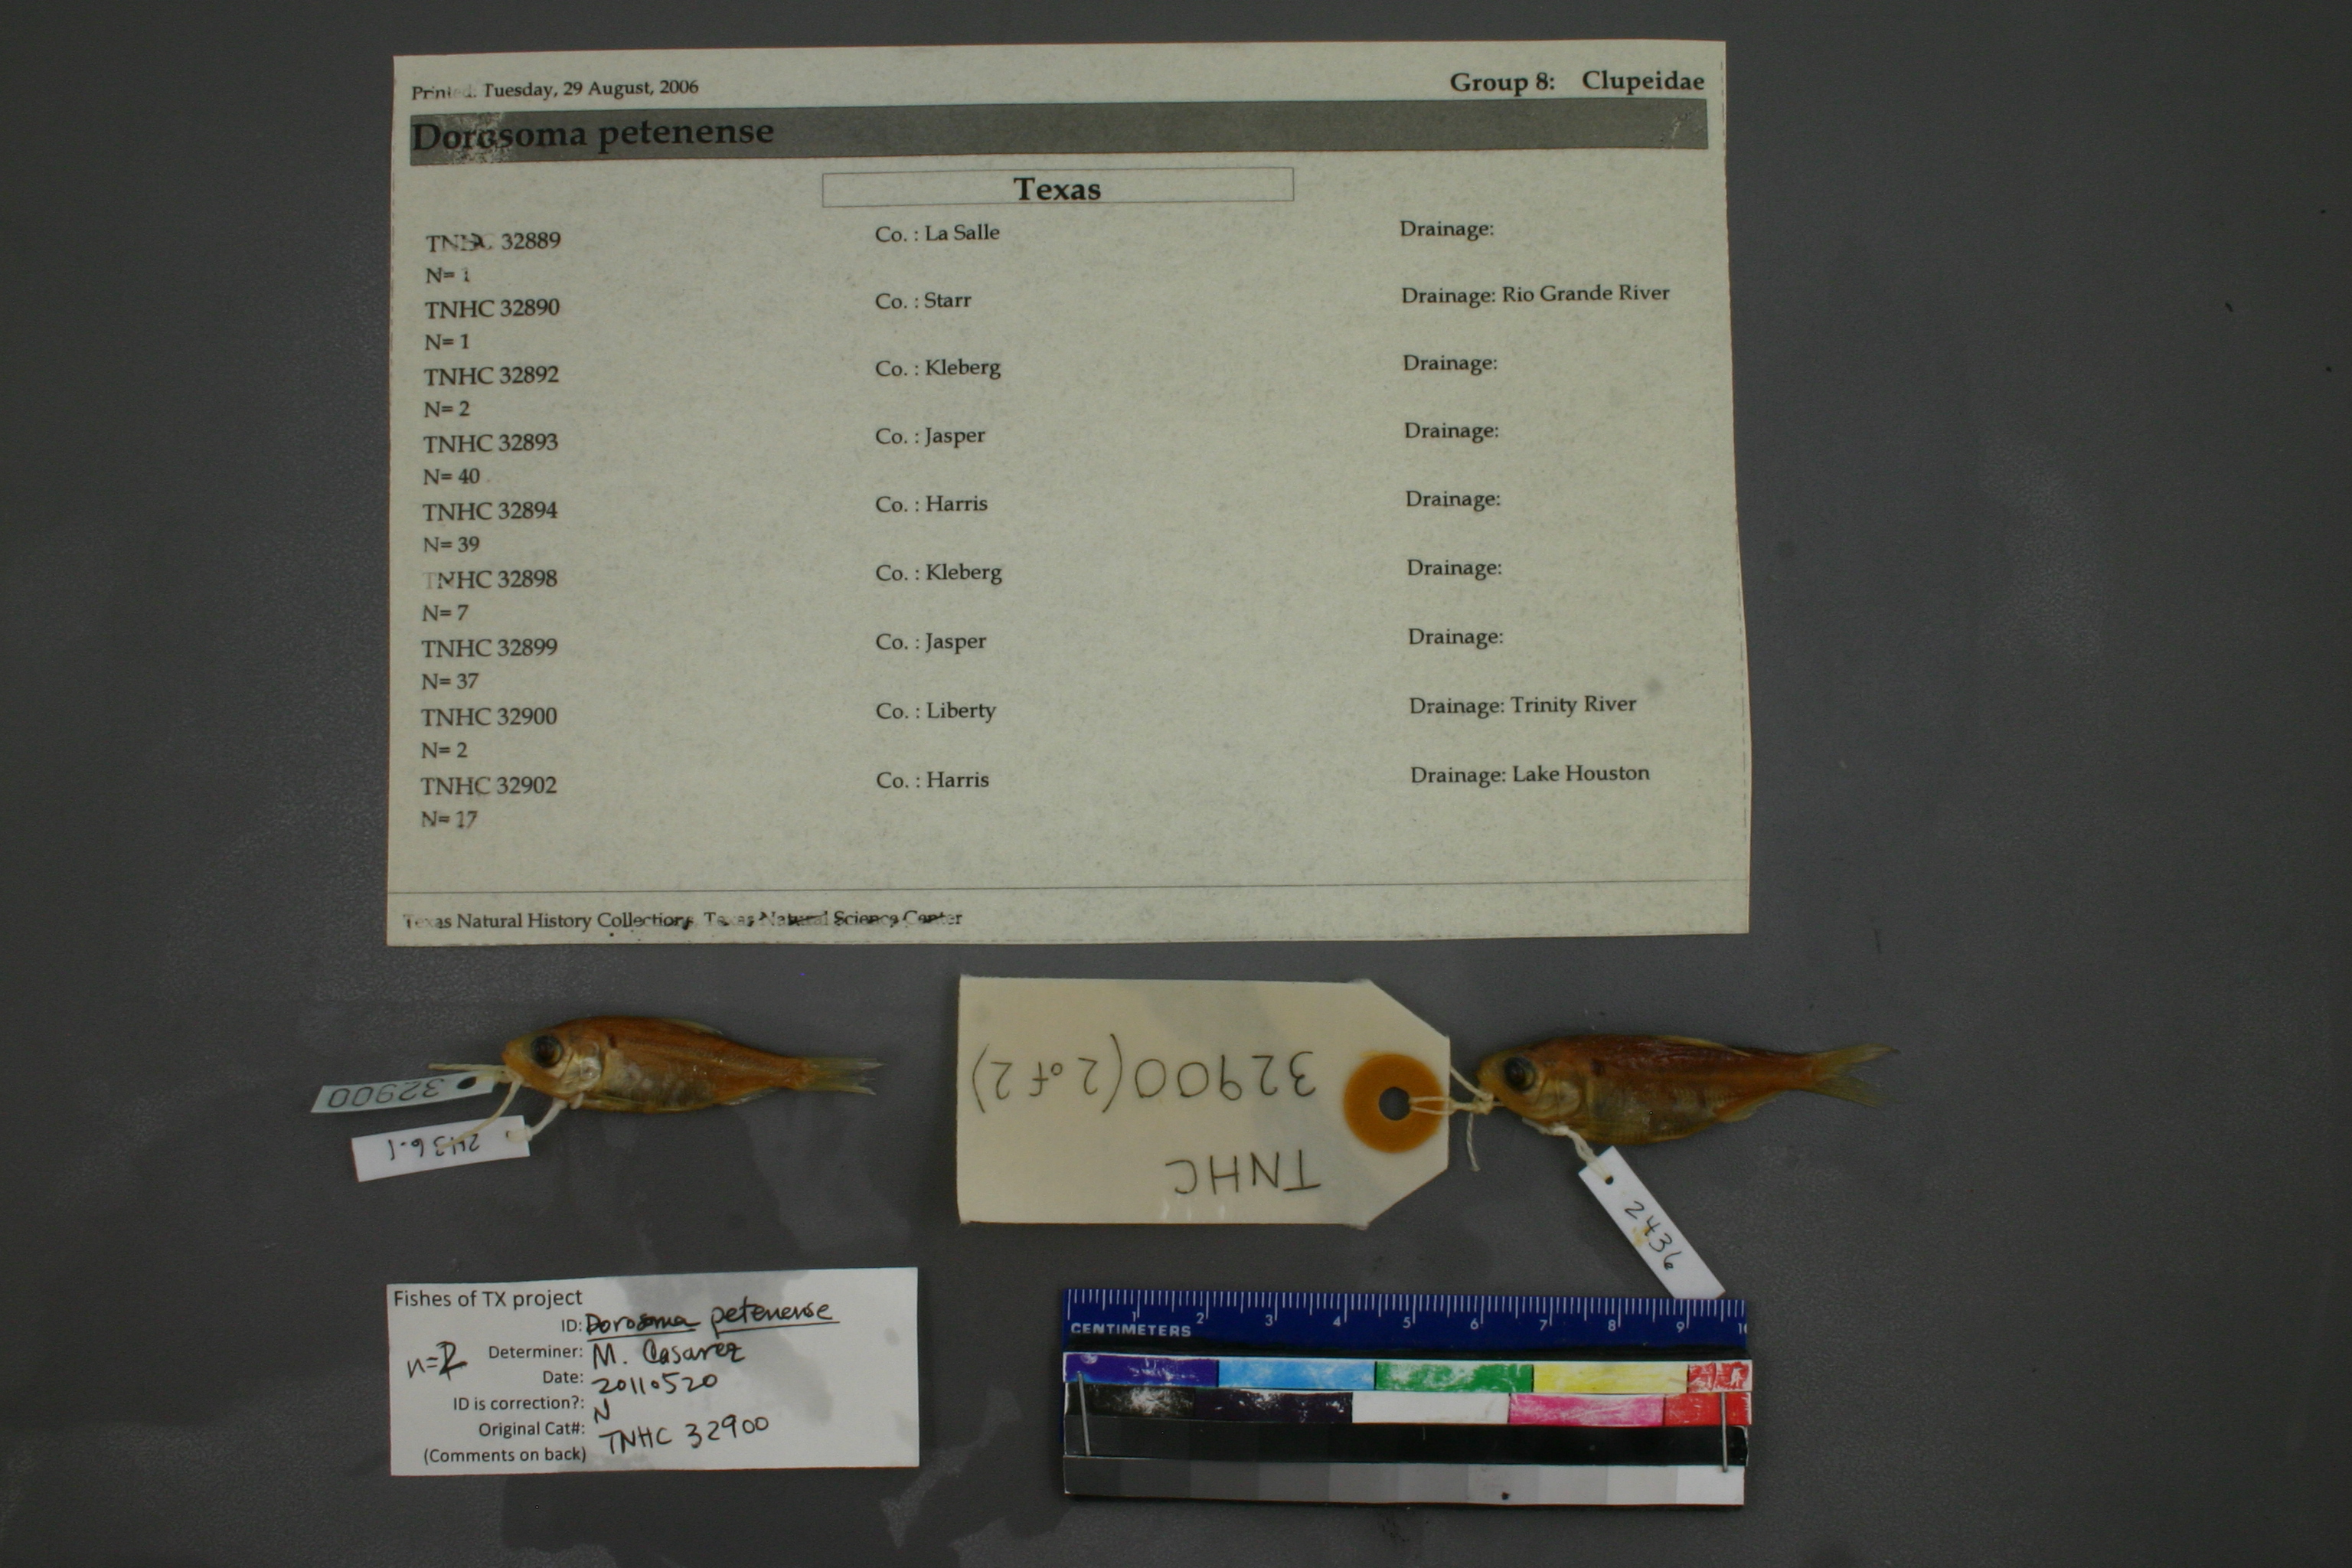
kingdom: Animalia
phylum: Chordata
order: Clupeiformes
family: Clupeidae
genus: Dorosoma
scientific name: Dorosoma petenense
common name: Threadfin shad
